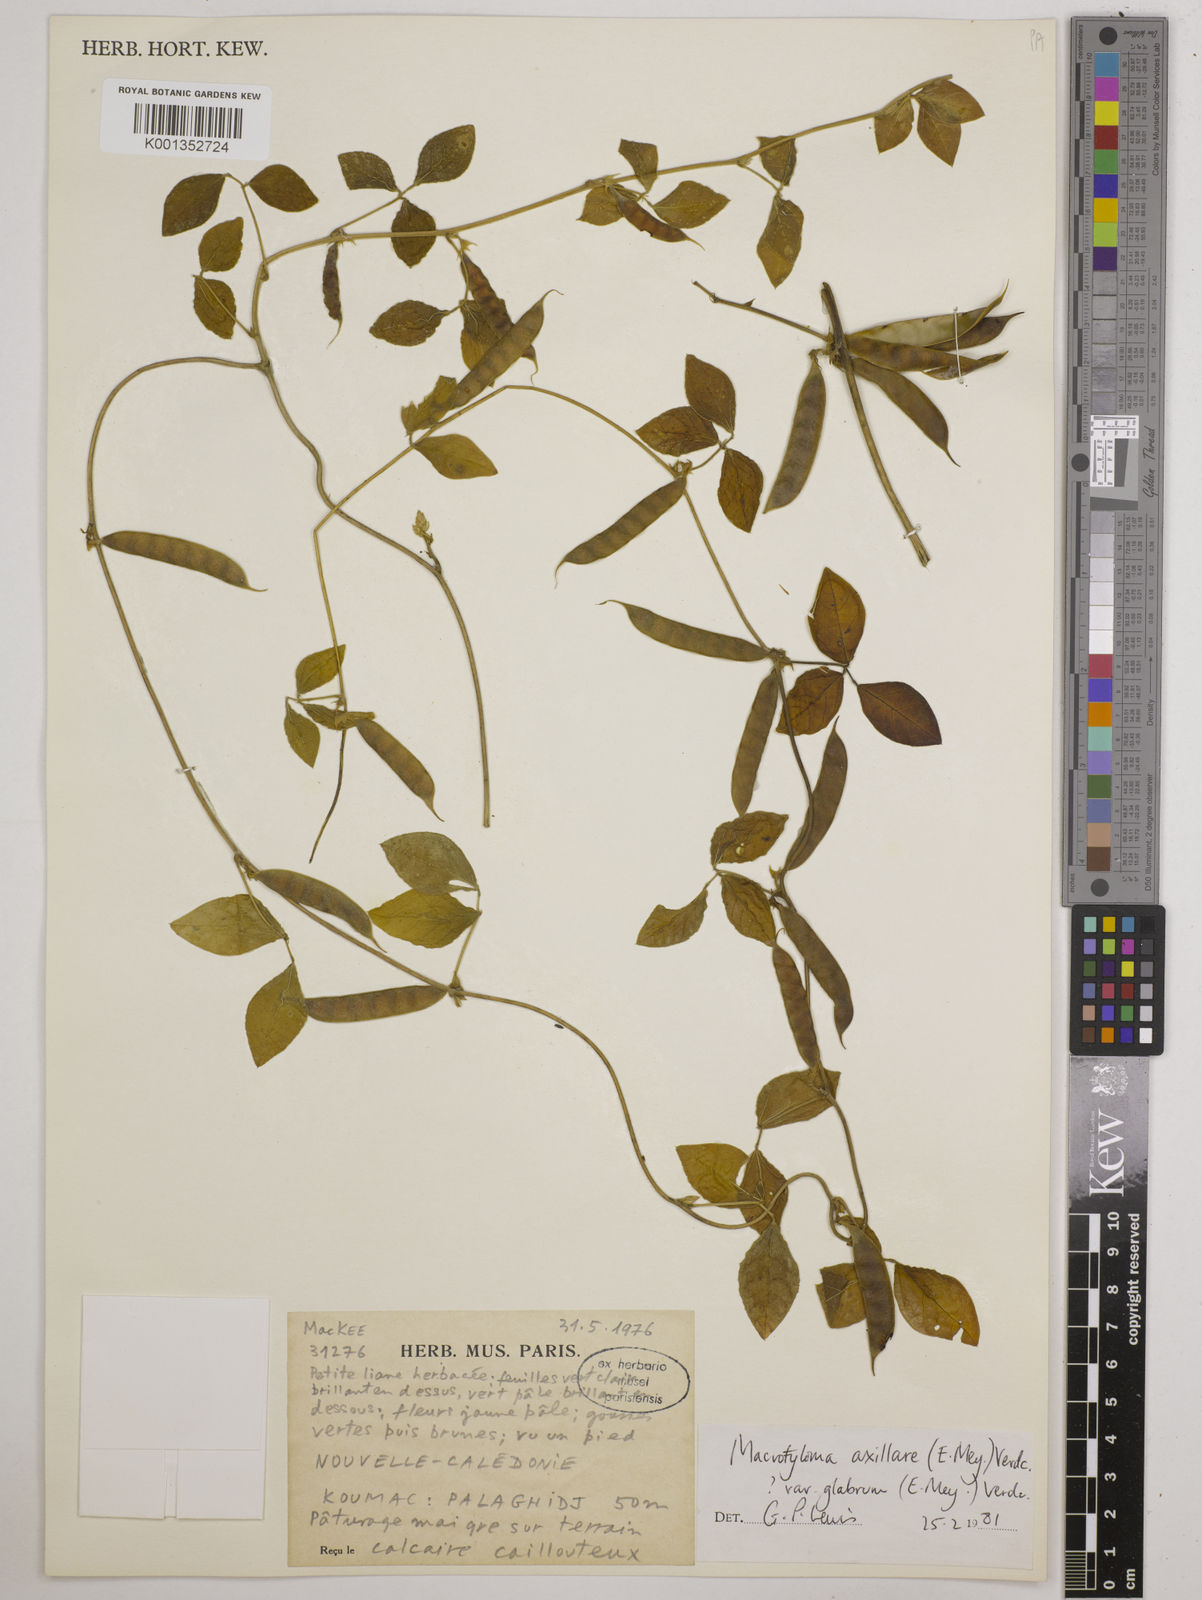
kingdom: Plantae
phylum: Tracheophyta
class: Magnoliopsida
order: Fabales
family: Fabaceae
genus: Macrotyloma
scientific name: Macrotyloma axillare
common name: Perennial horsegram
